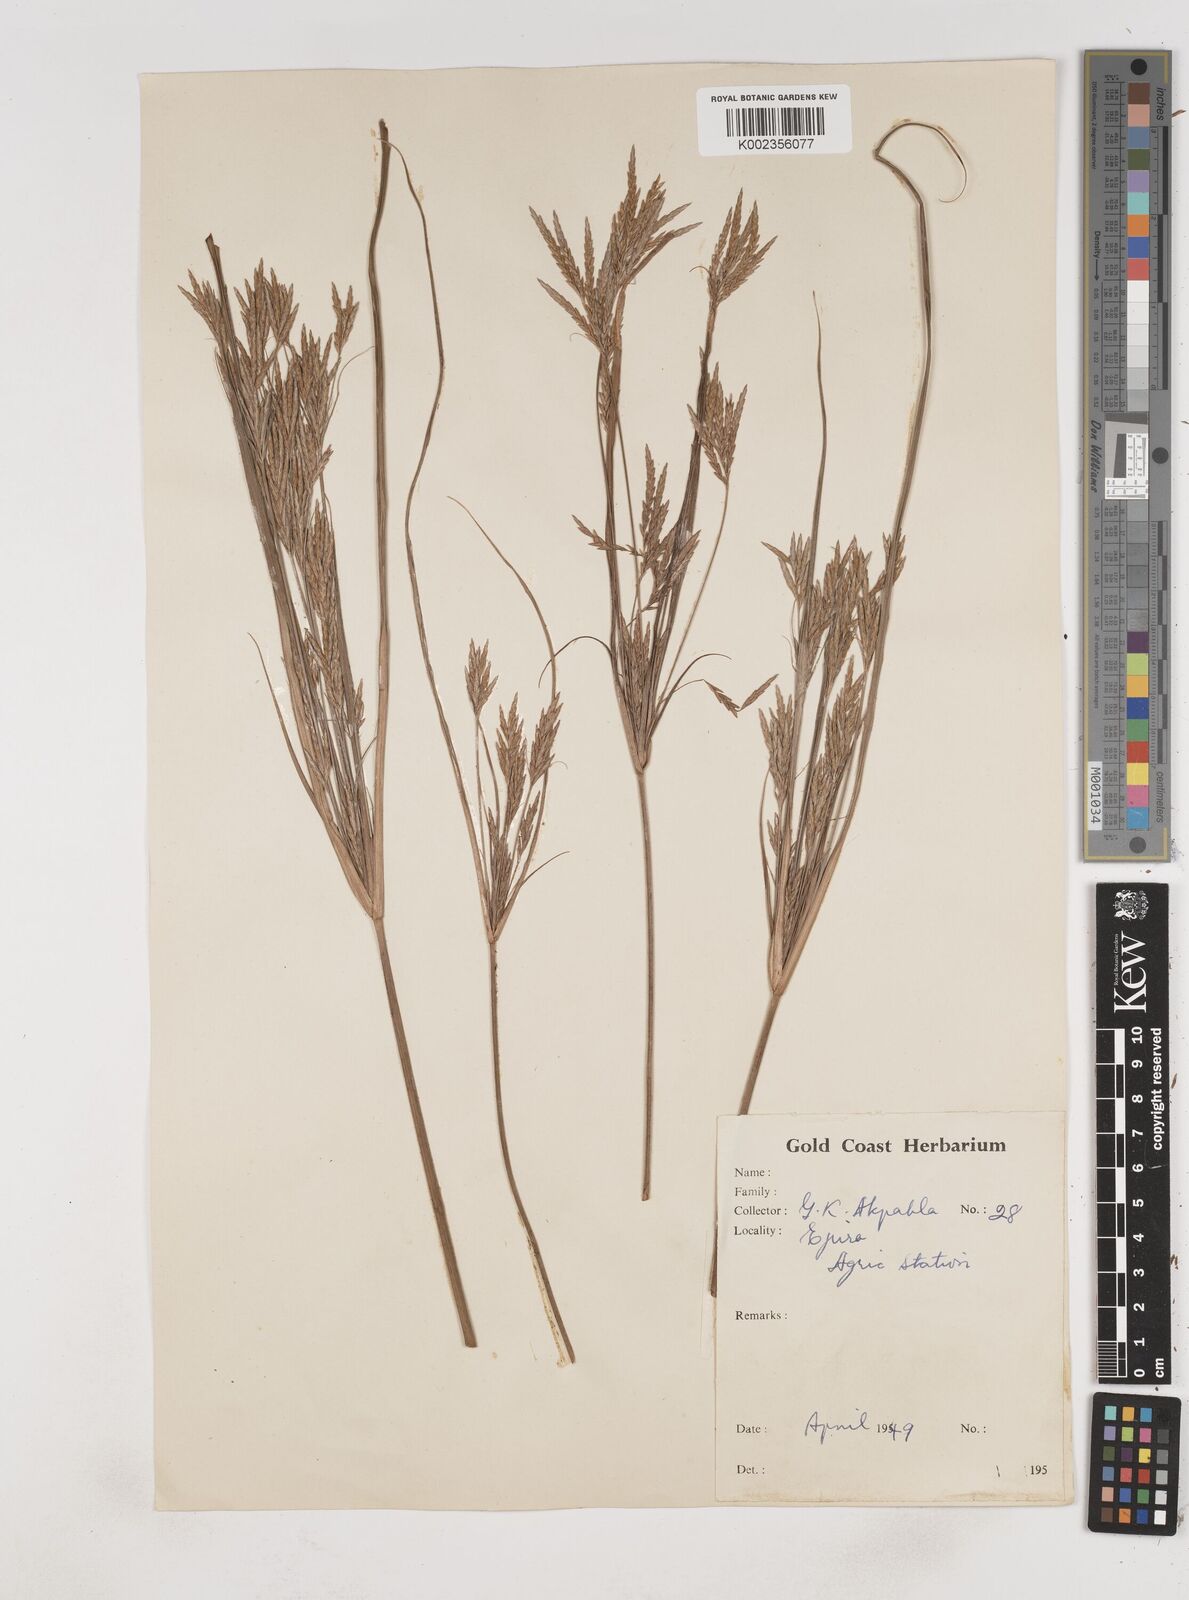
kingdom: Plantae
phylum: Tracheophyta
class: Liliopsida
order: Poales
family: Cyperaceae
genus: Cyperus
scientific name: Cyperus tenuiculmis
